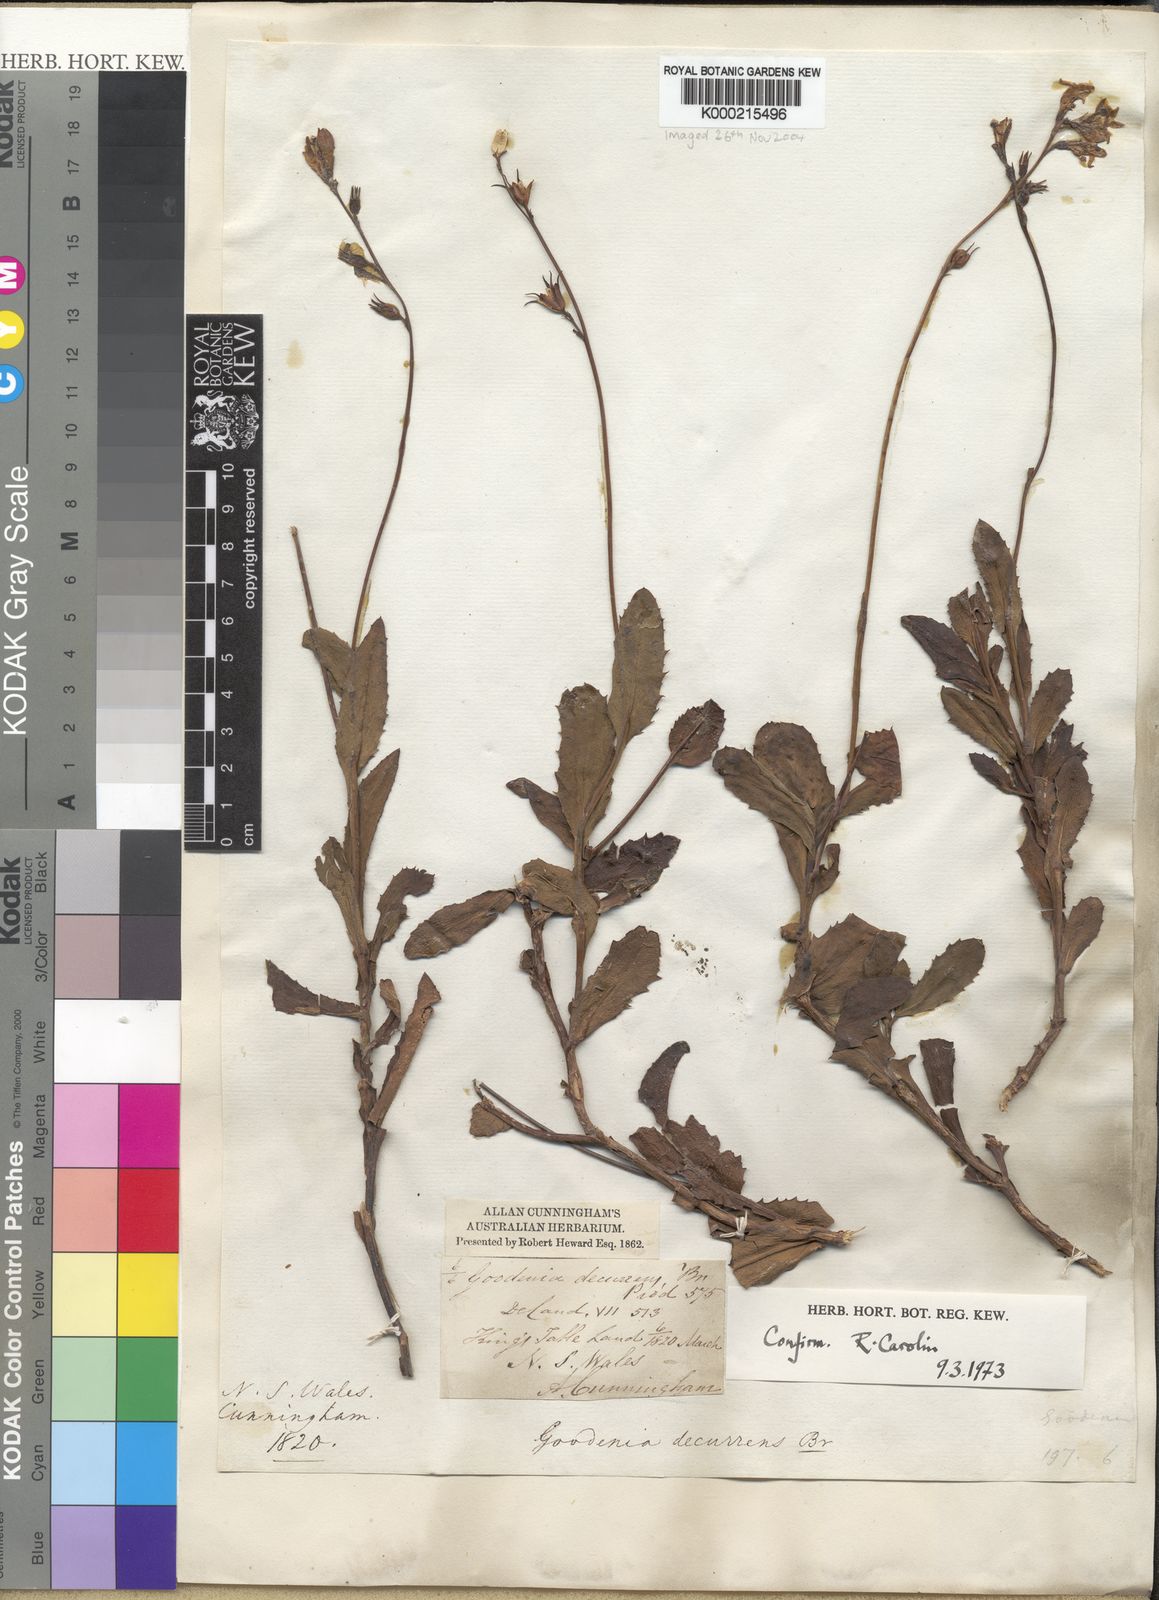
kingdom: Plantae
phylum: Tracheophyta
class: Magnoliopsida
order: Asterales
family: Goodeniaceae
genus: Goodenia
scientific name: Goodenia decurrens
